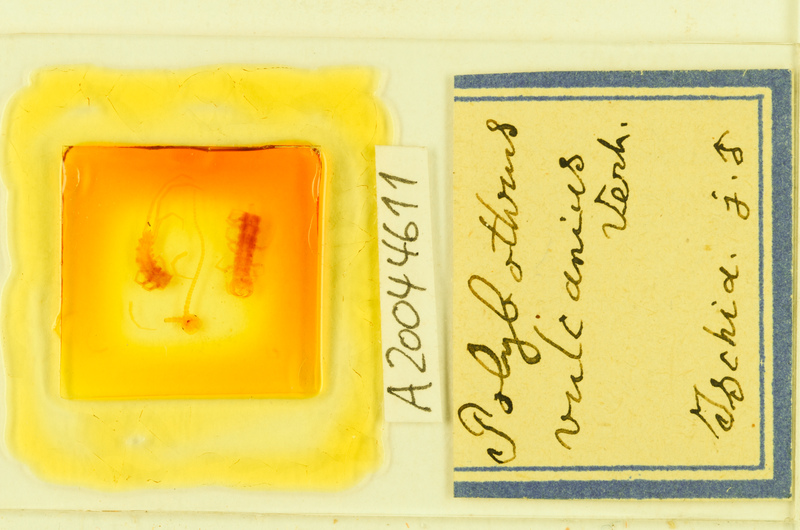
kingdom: Animalia
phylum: Arthropoda
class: Chilopoda
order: Lithobiomorpha
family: Lithobiidae
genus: Eupolybothrus
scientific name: Eupolybothrus imperialis
